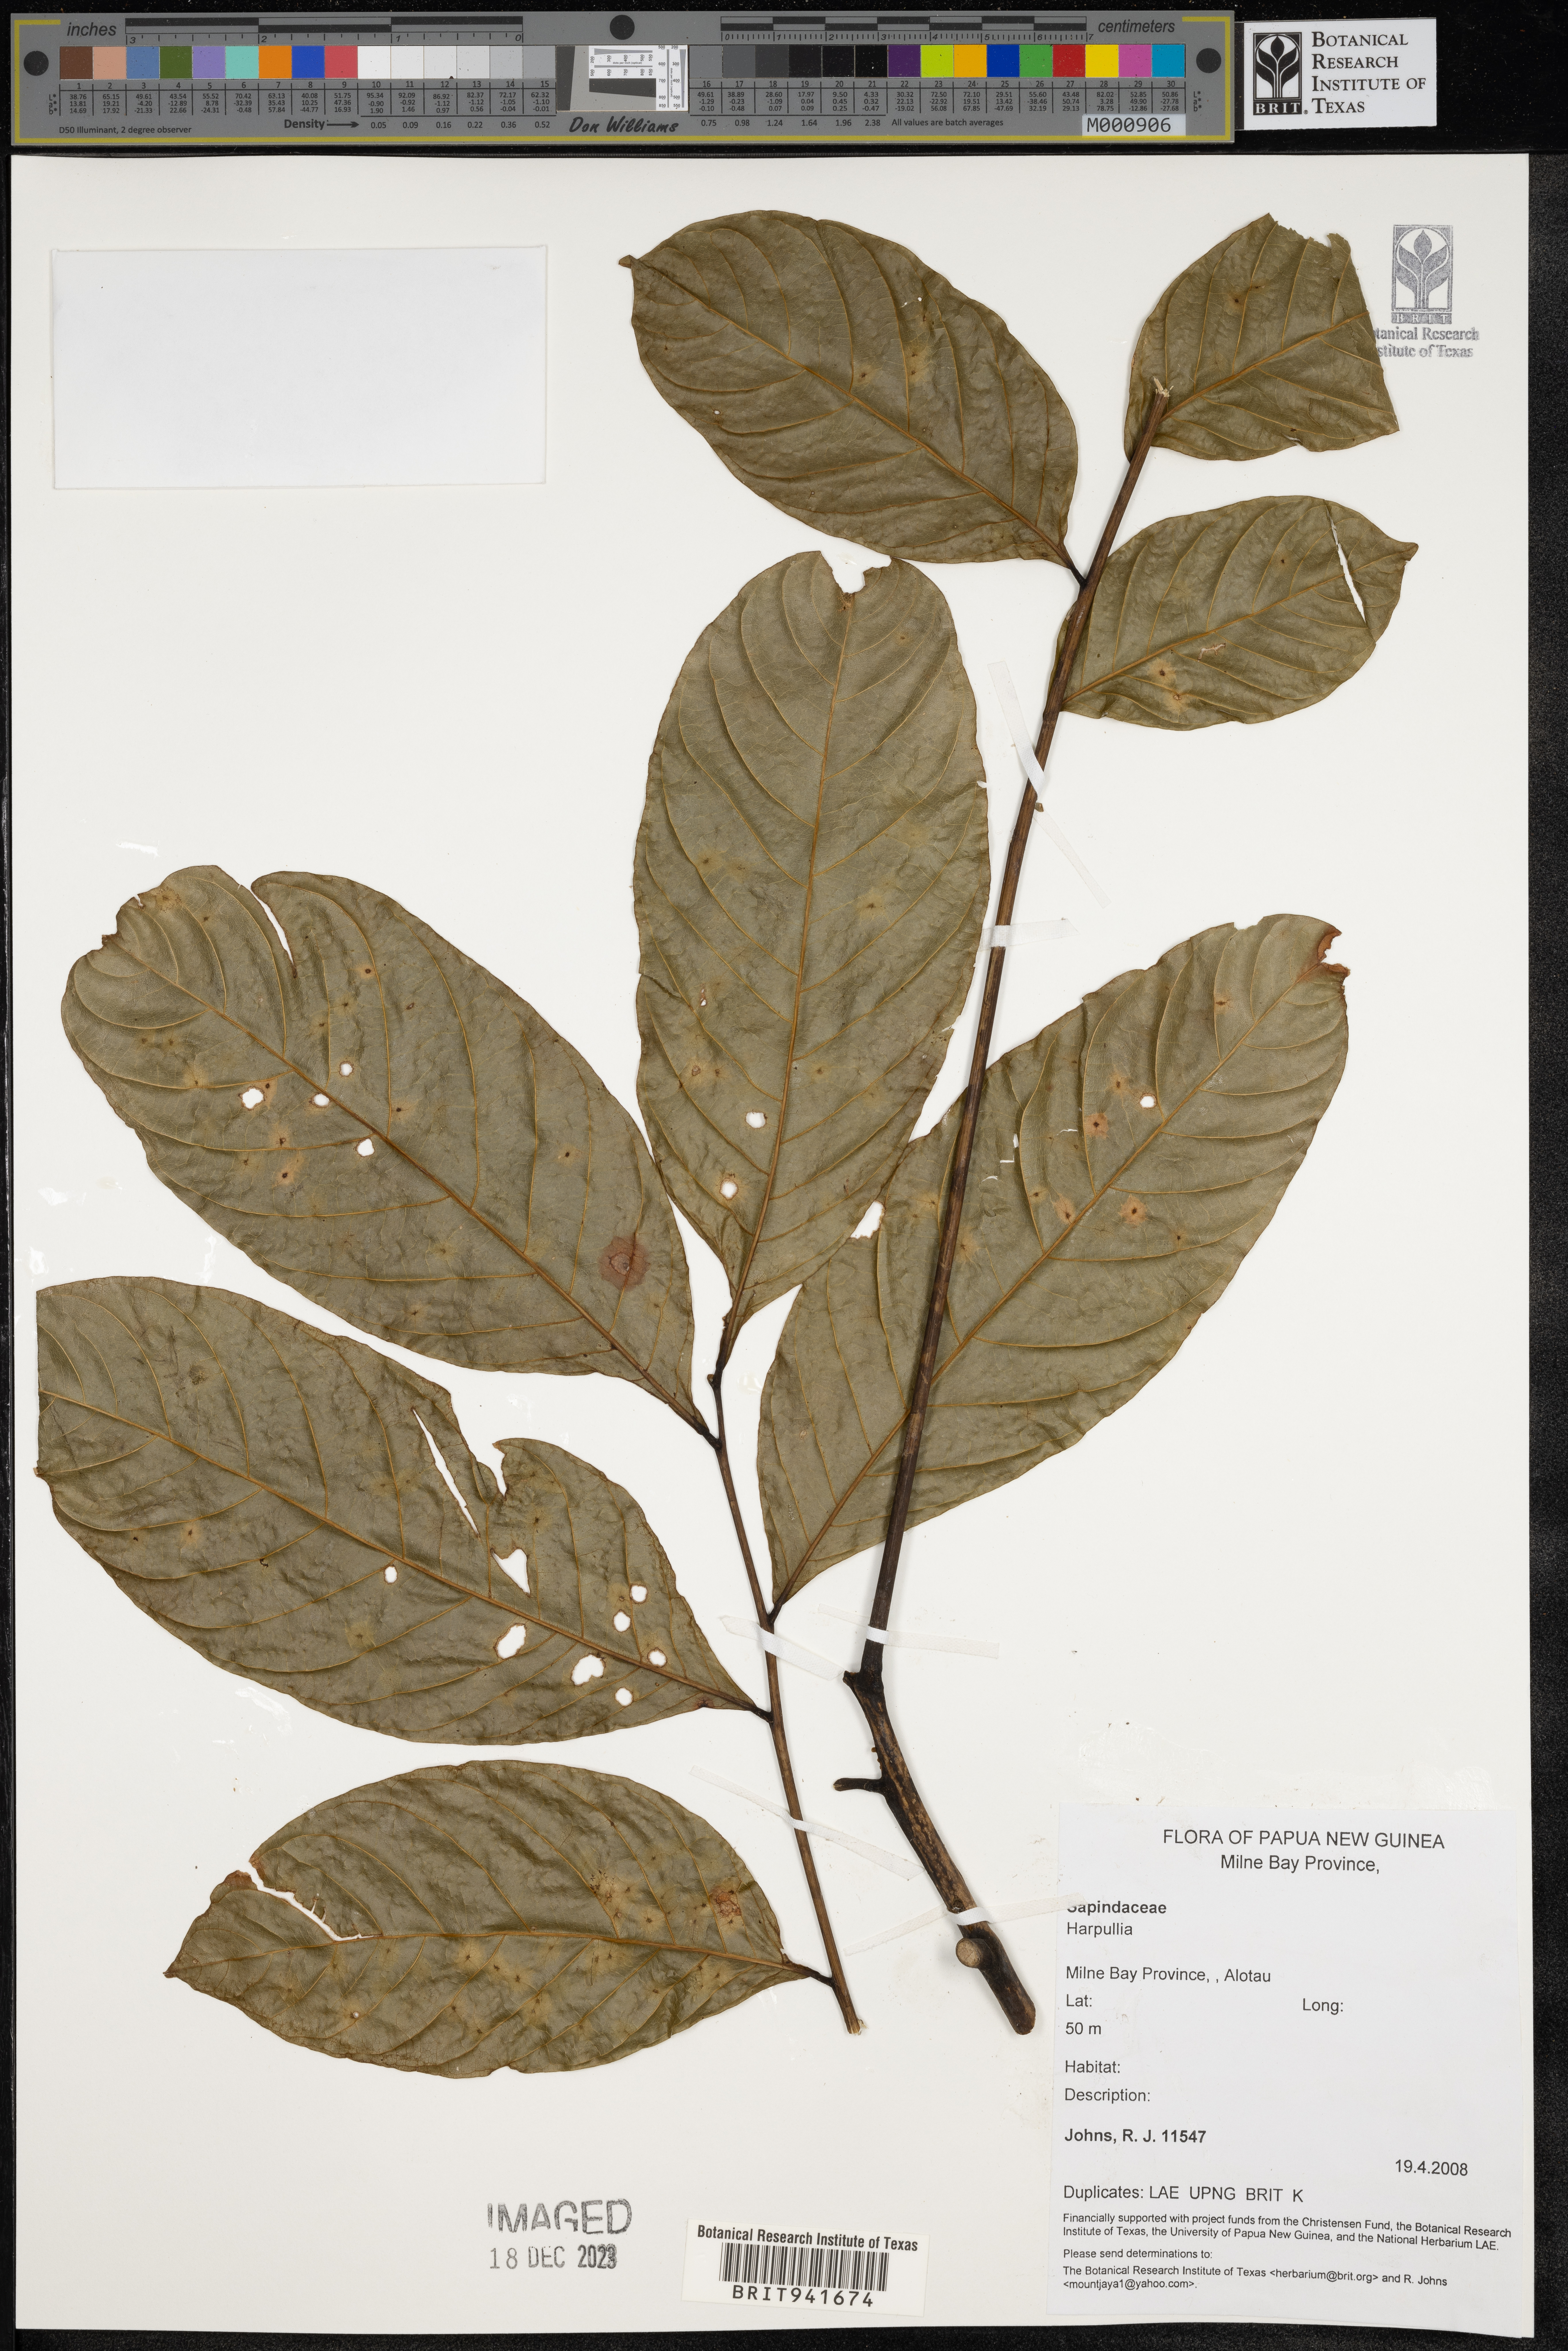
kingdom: Plantae
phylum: Tracheophyta
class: Magnoliopsida
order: Sapindales
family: Sapindaceae
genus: Harpullia
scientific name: Harpullia
